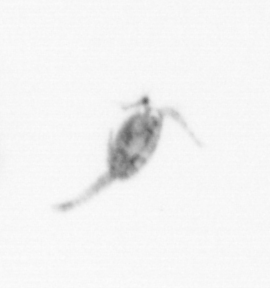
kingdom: Animalia
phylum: Arthropoda
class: Copepoda
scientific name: Copepoda
